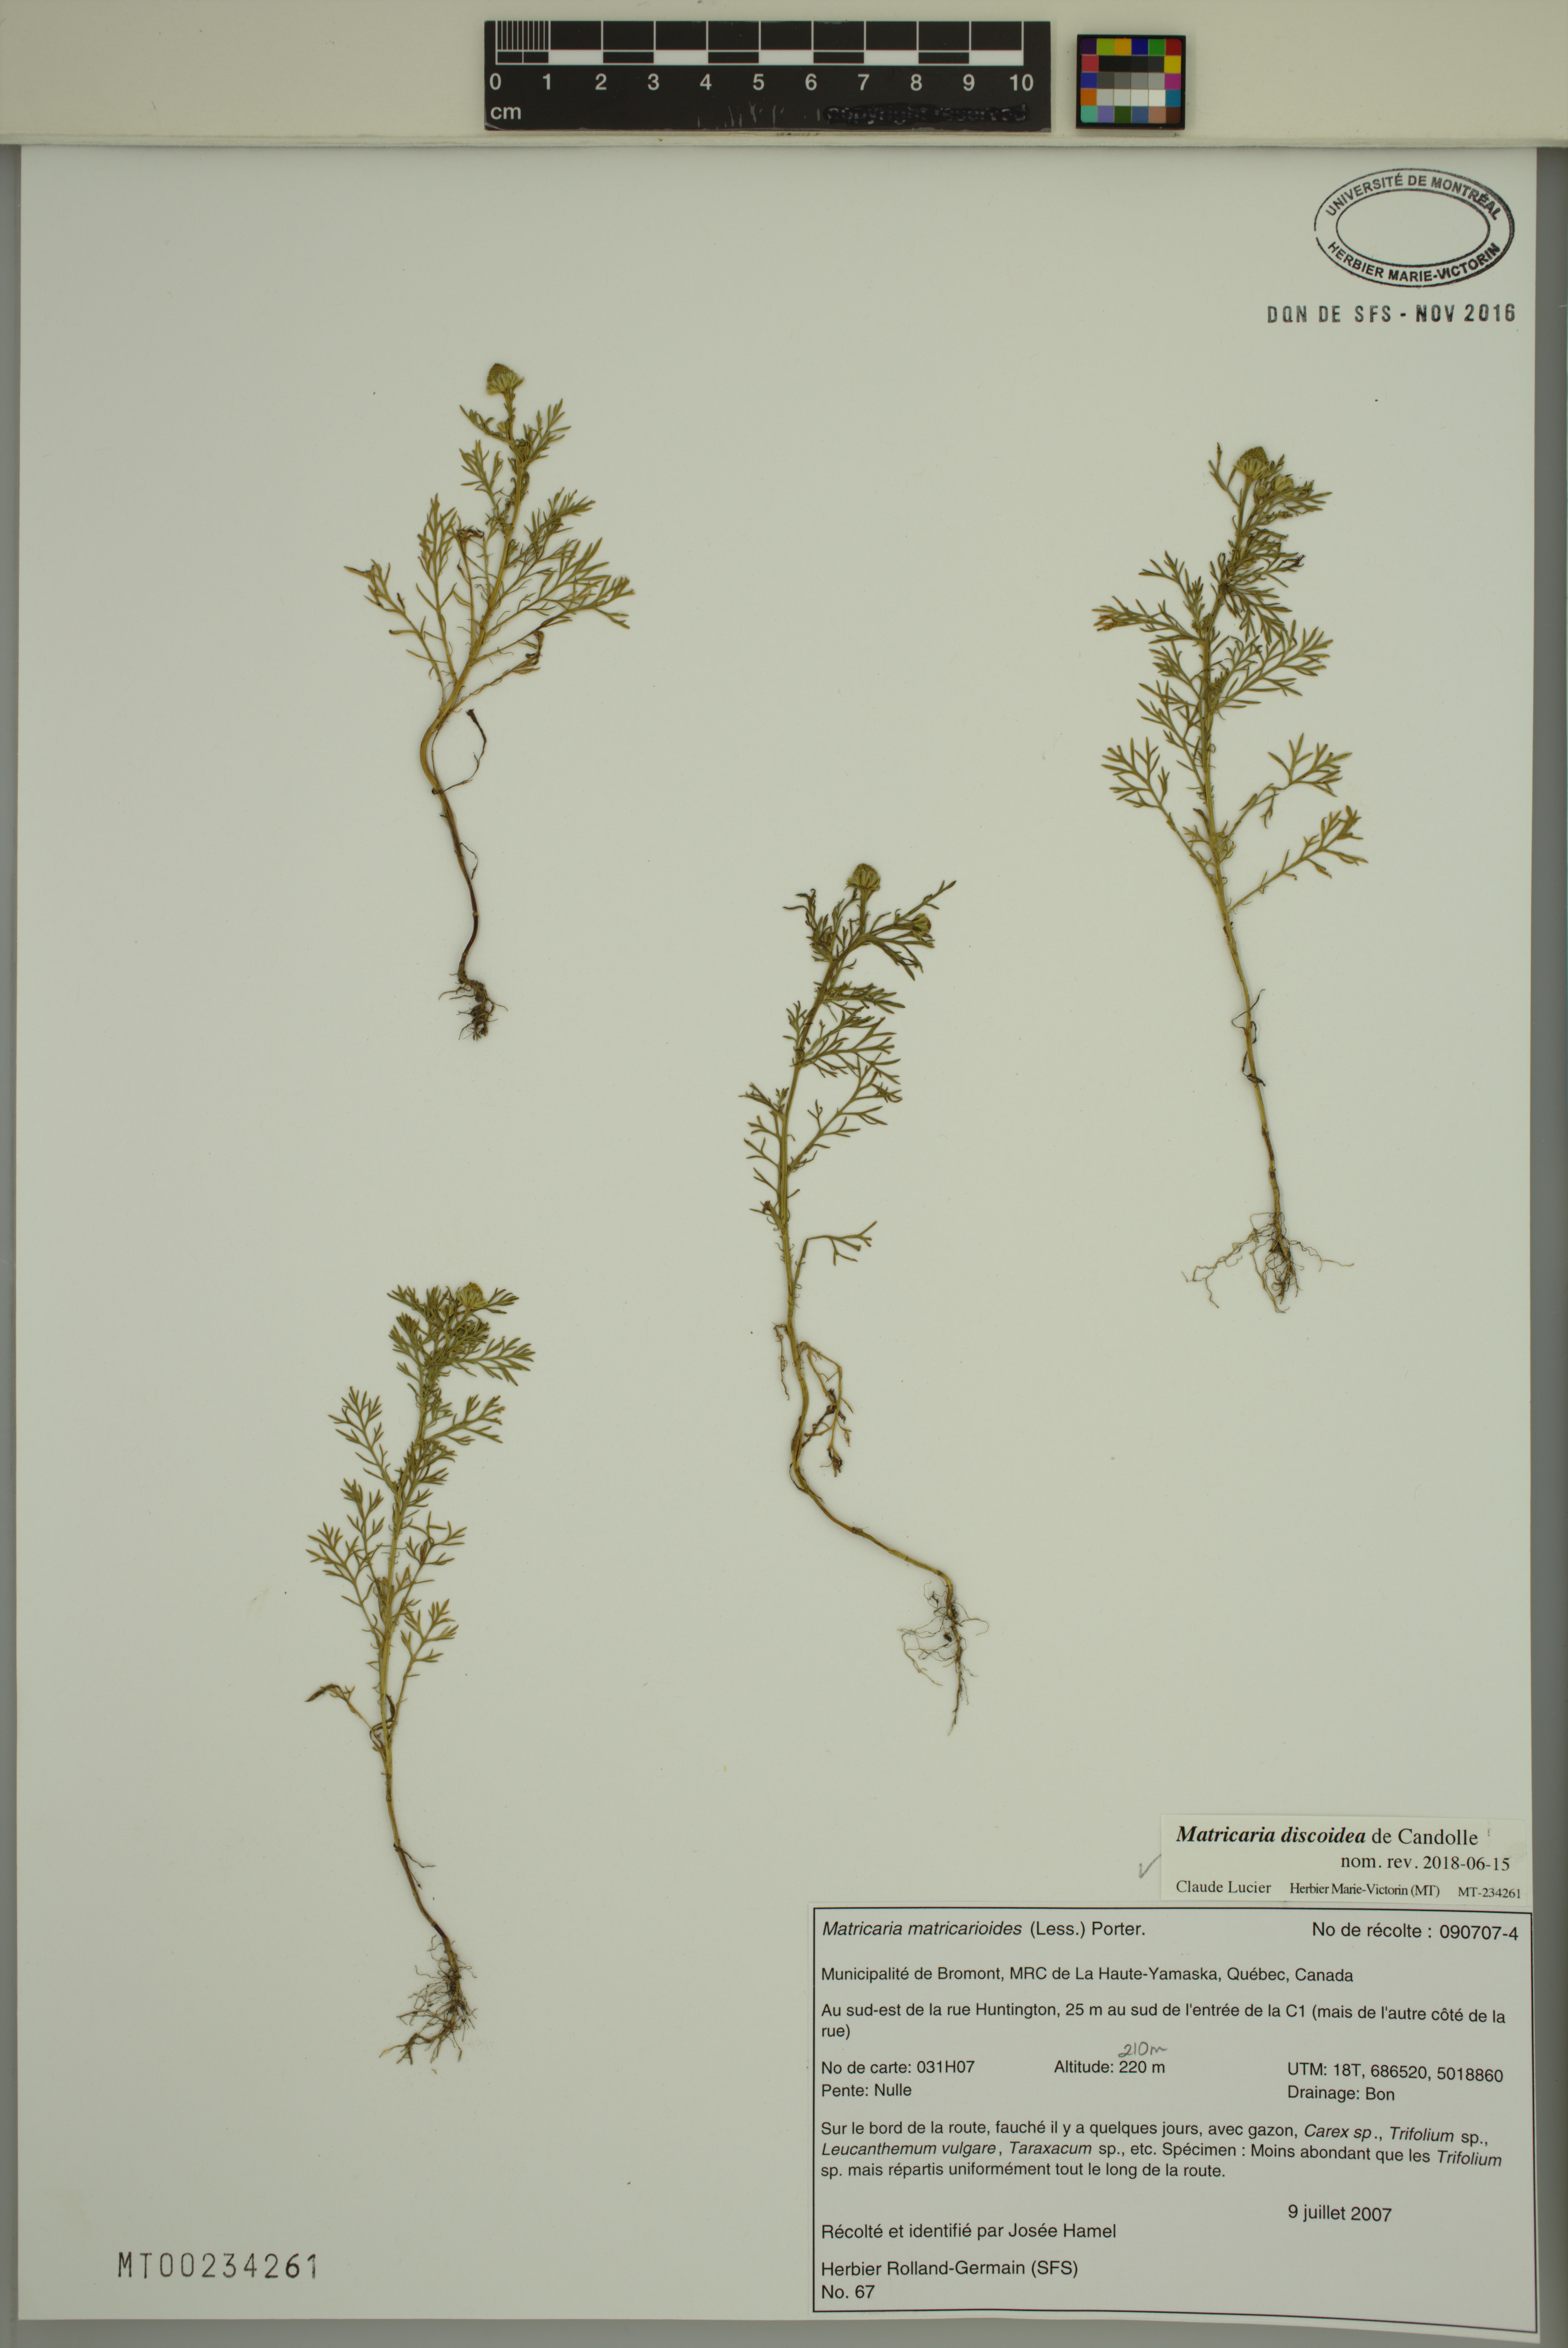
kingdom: Plantae
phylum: Tracheophyta
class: Magnoliopsida
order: Asterales
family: Asteraceae
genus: Matricaria
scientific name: Matricaria discoidea
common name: Disc mayweed
